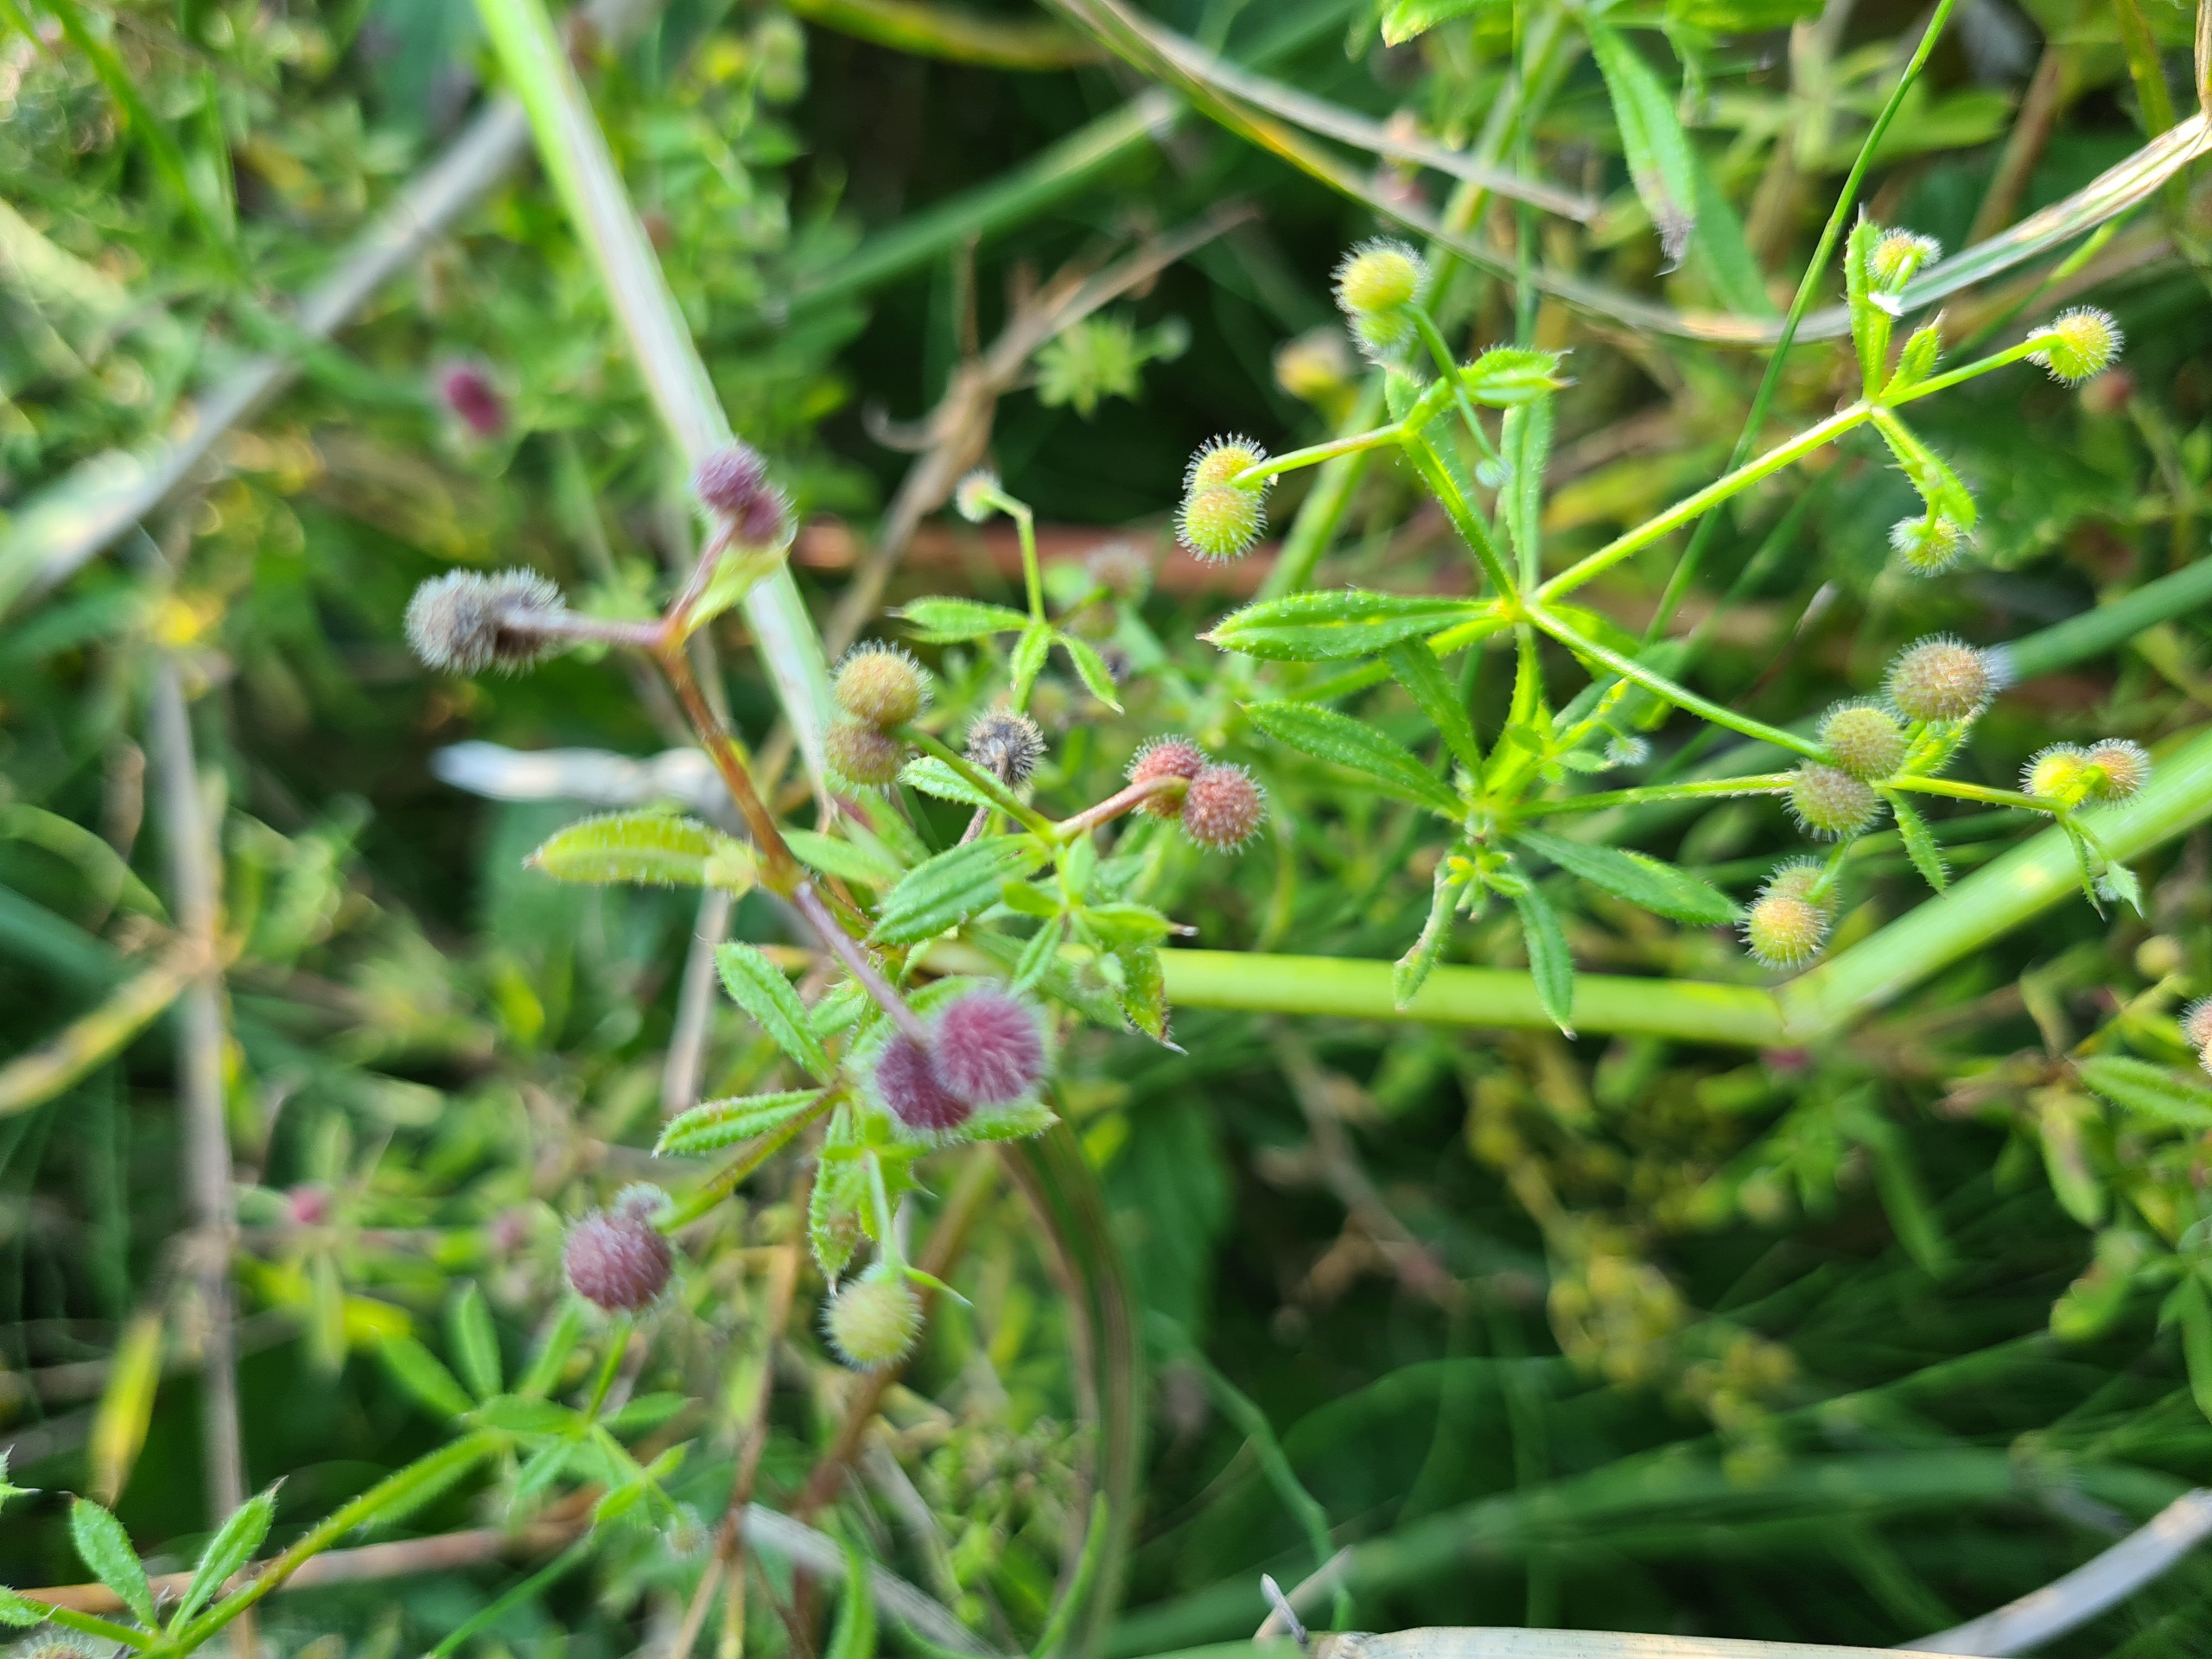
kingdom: Plantae
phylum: Tracheophyta
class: Magnoliopsida
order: Gentianales
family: Rubiaceae
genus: Galium
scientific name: Galium aparine
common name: Burre-snerre
